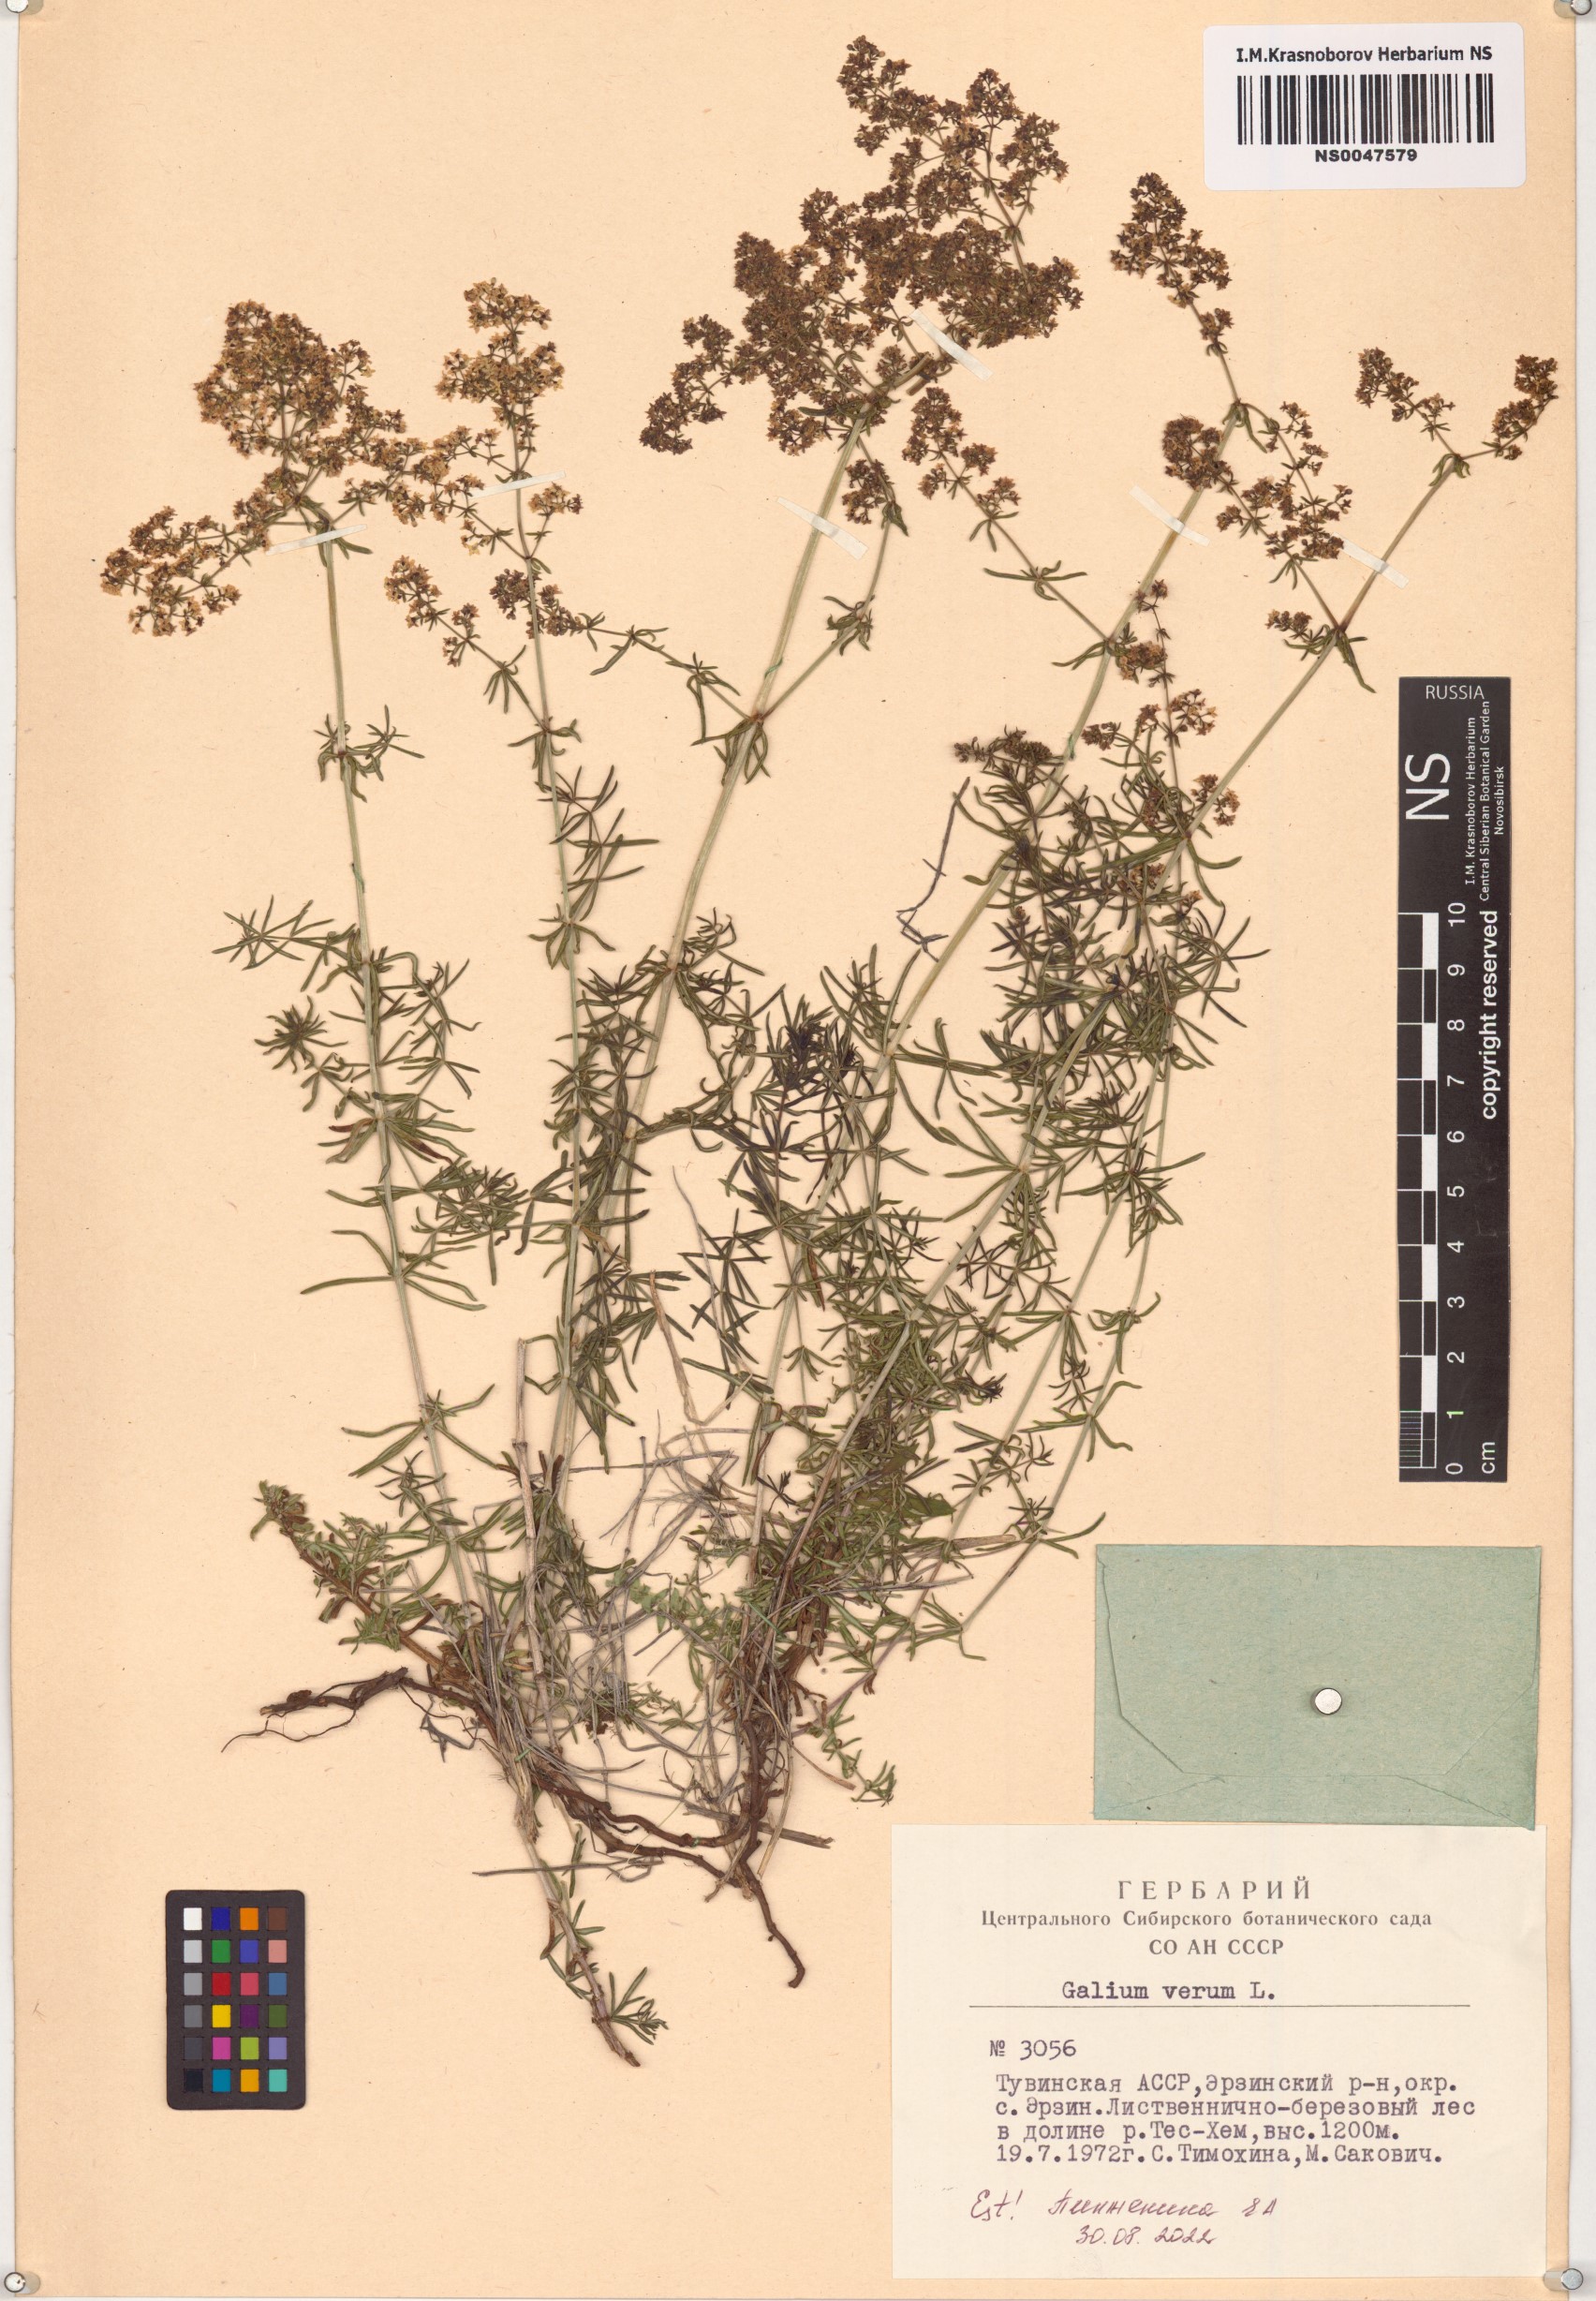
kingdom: Plantae
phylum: Tracheophyta
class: Magnoliopsida
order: Gentianales
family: Rubiaceae
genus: Galium
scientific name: Galium verum
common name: Lady's bedstraw
